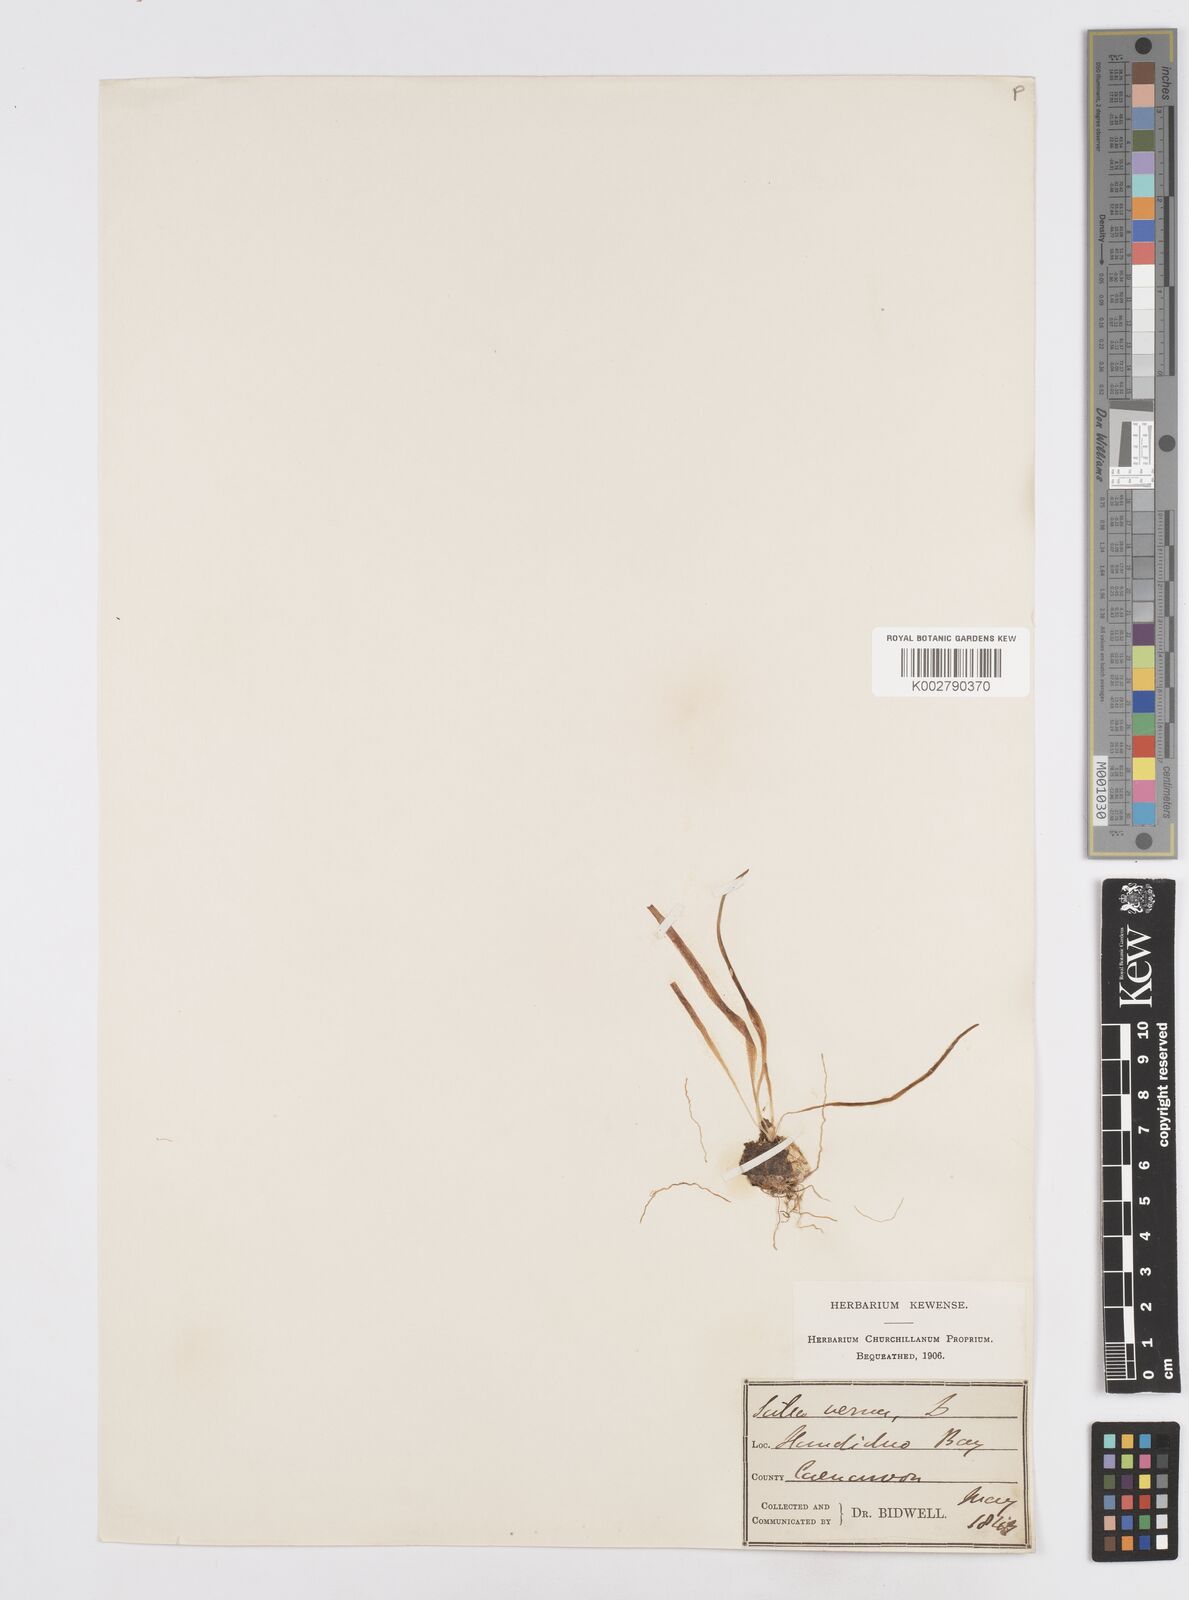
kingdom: Plantae
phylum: Tracheophyta
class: Liliopsida
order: Asparagales
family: Asparagaceae
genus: Scilla
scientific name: Scilla verna
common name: Spring squill
